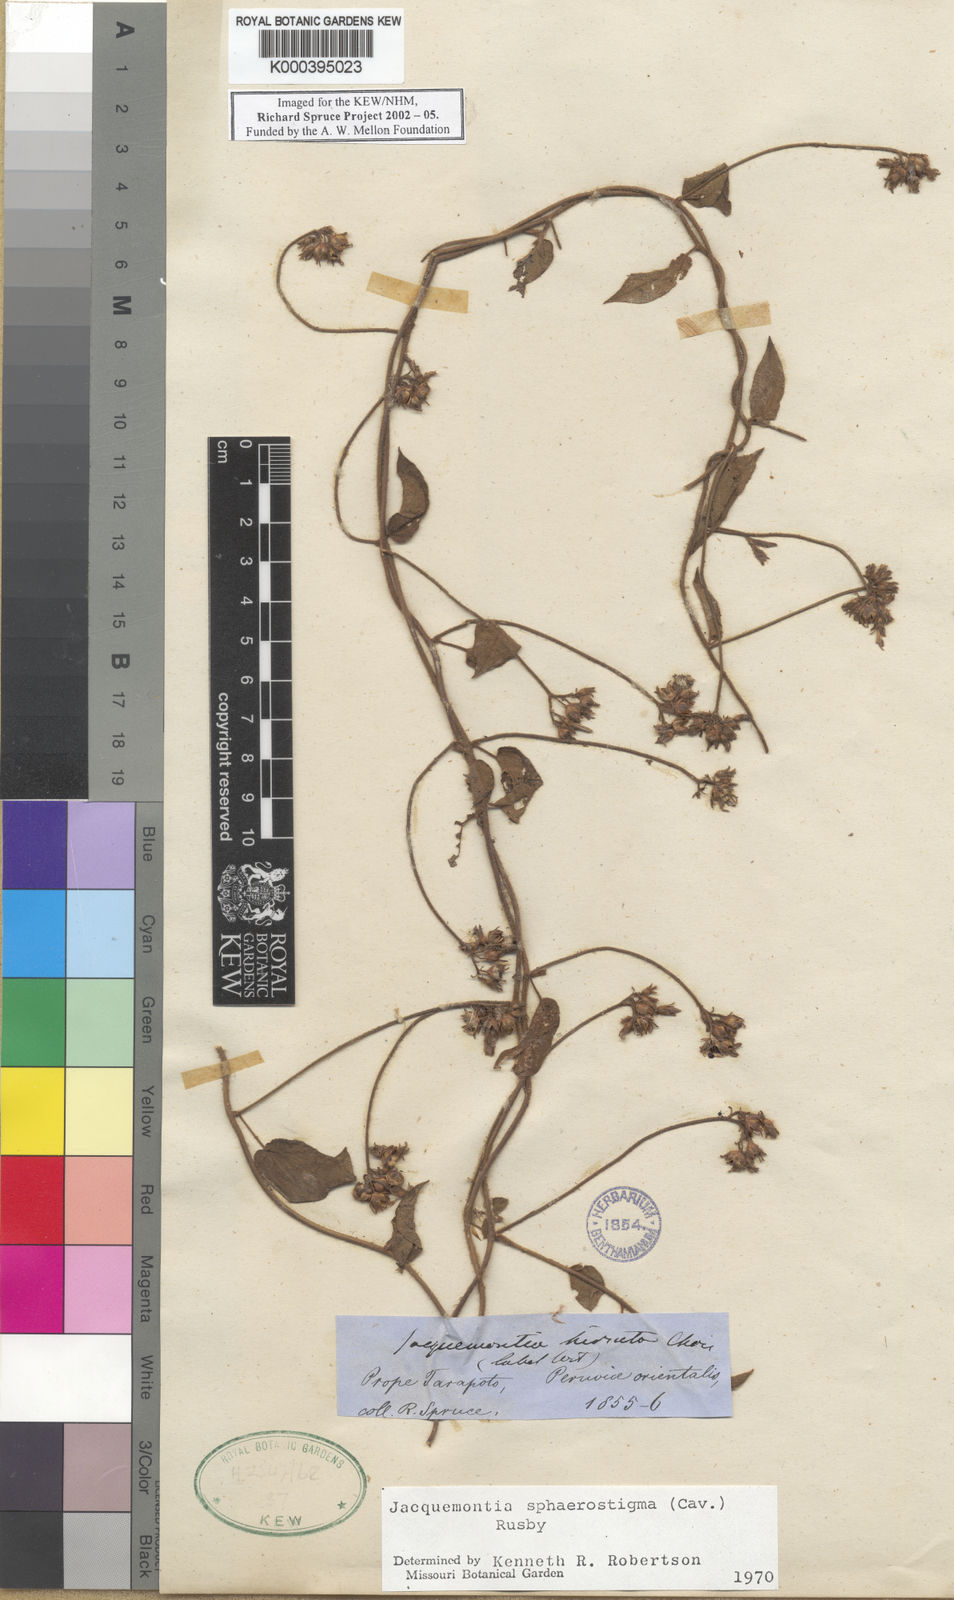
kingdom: Plantae
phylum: Tracheophyta
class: Magnoliopsida
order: Solanales
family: Convolvulaceae
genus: Jacquemontia
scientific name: Jacquemontia sphaerostigma
